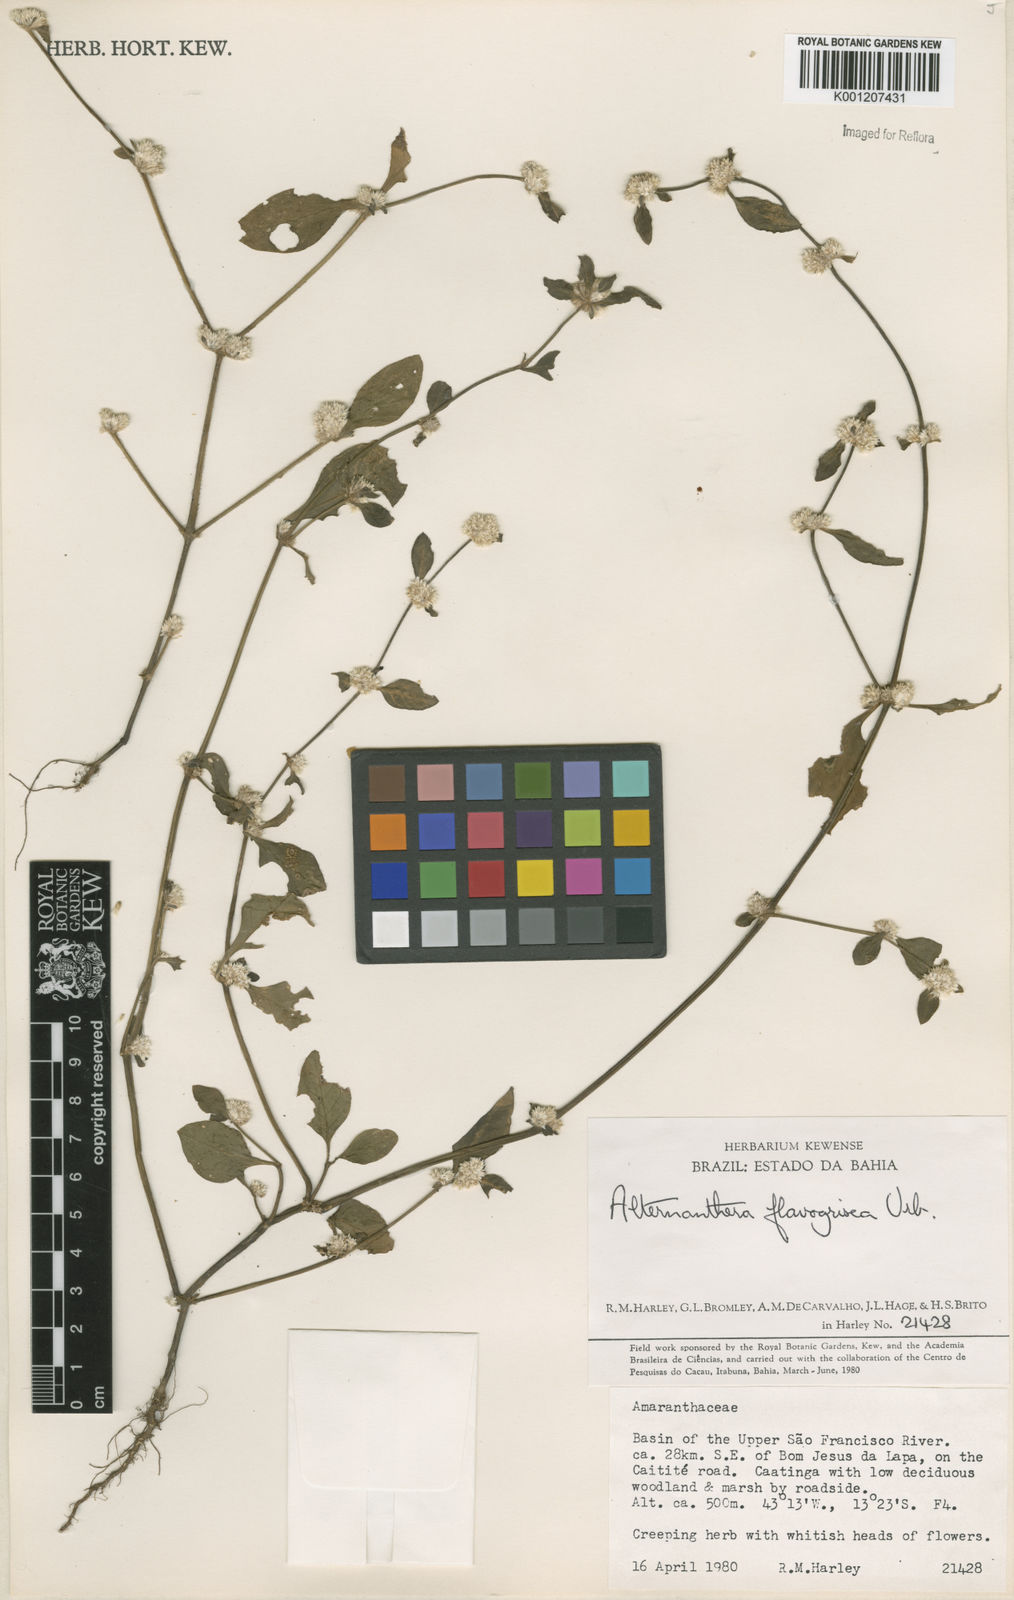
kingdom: Plantae
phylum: Tracheophyta
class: Magnoliopsida
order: Caryophyllales
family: Amaranthaceae
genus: Alternanthera
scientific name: Alternanthera halimifolia
